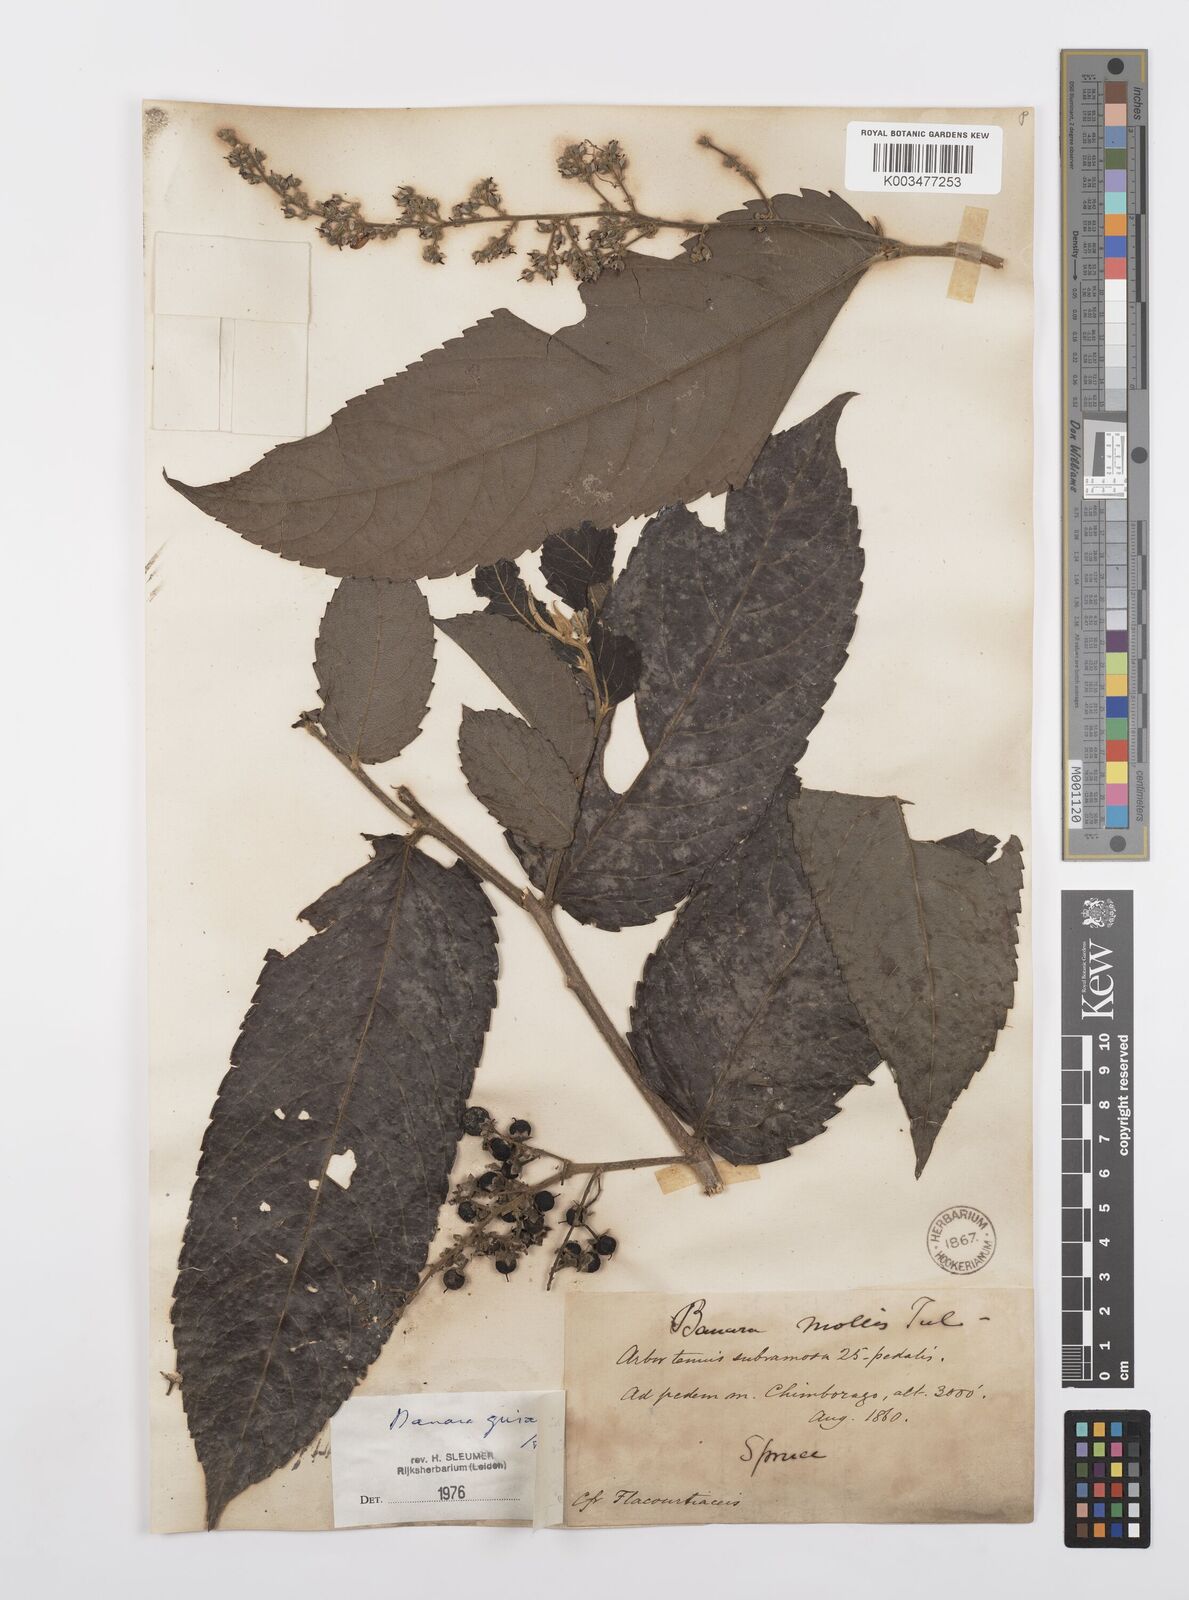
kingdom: Plantae
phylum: Tracheophyta
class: Magnoliopsida
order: Malpighiales
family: Salicaceae
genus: Banara
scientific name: Banara guianensis
